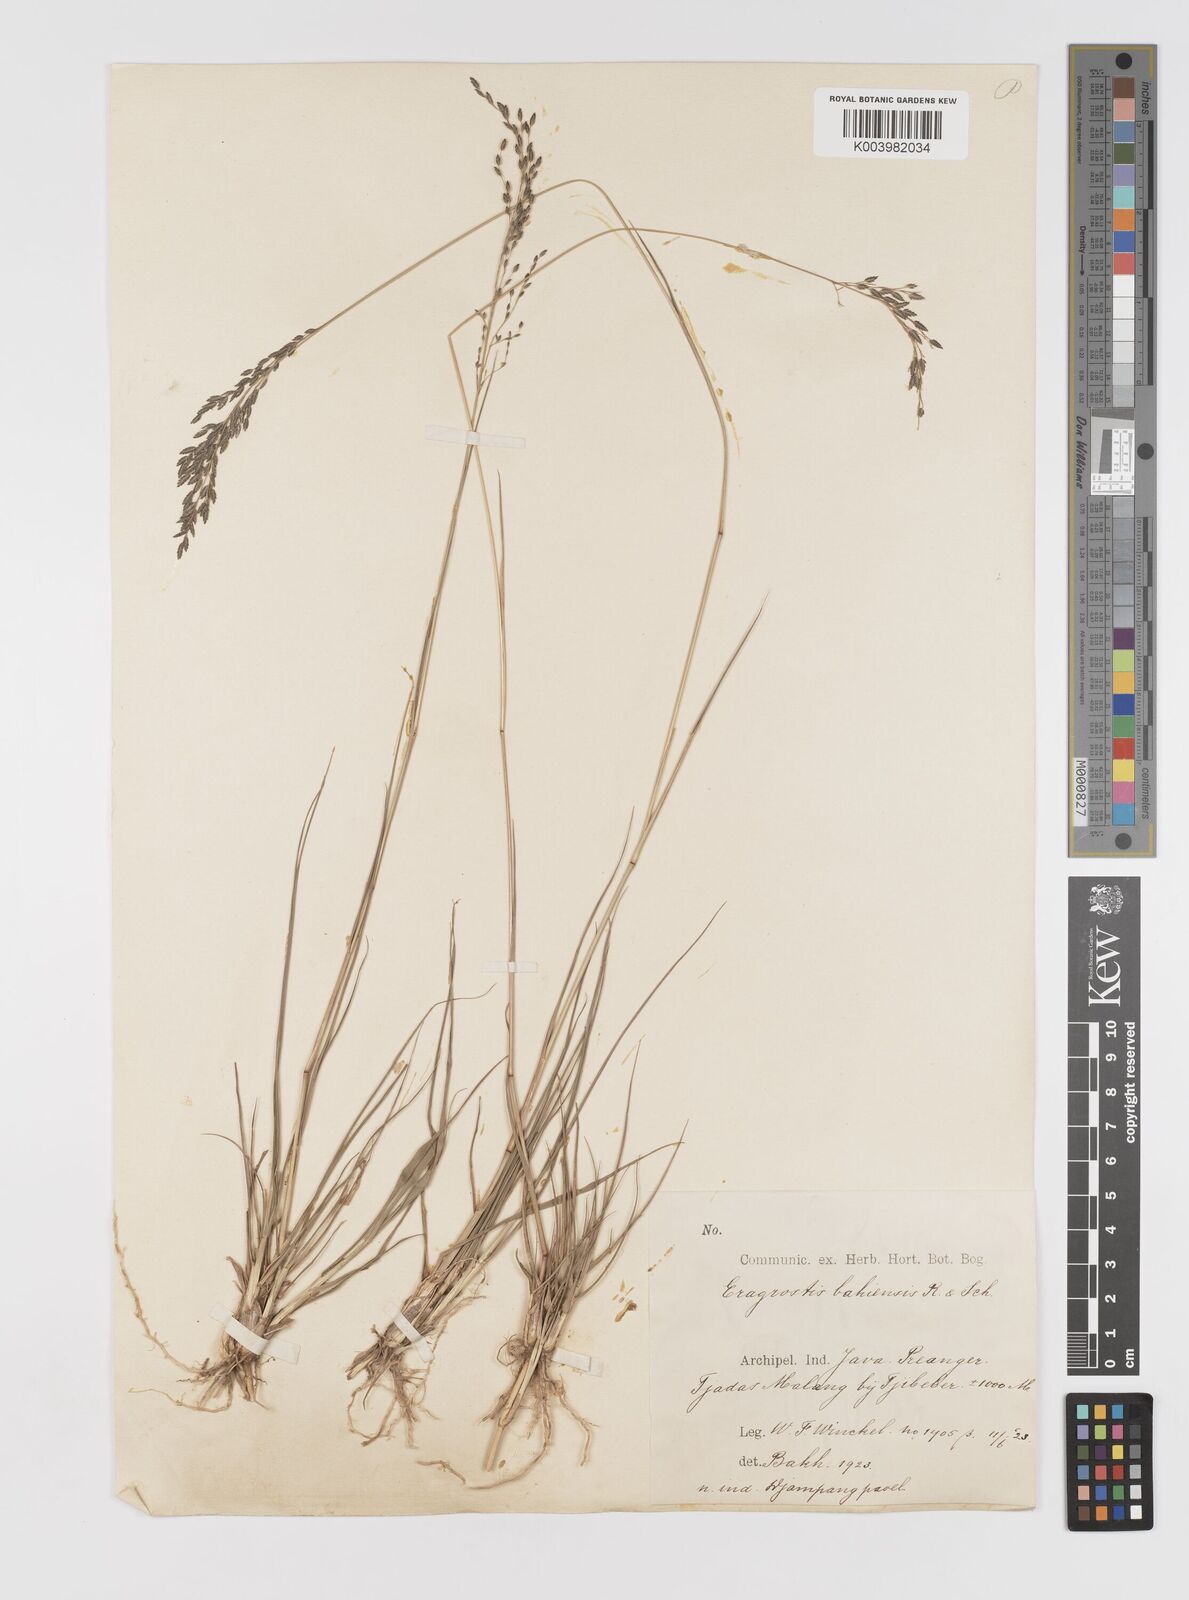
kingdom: Plantae
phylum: Tracheophyta
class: Liliopsida
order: Poales
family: Poaceae
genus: Eragrostis
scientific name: Eragrostis atrovirens
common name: Thalia lovegrass
